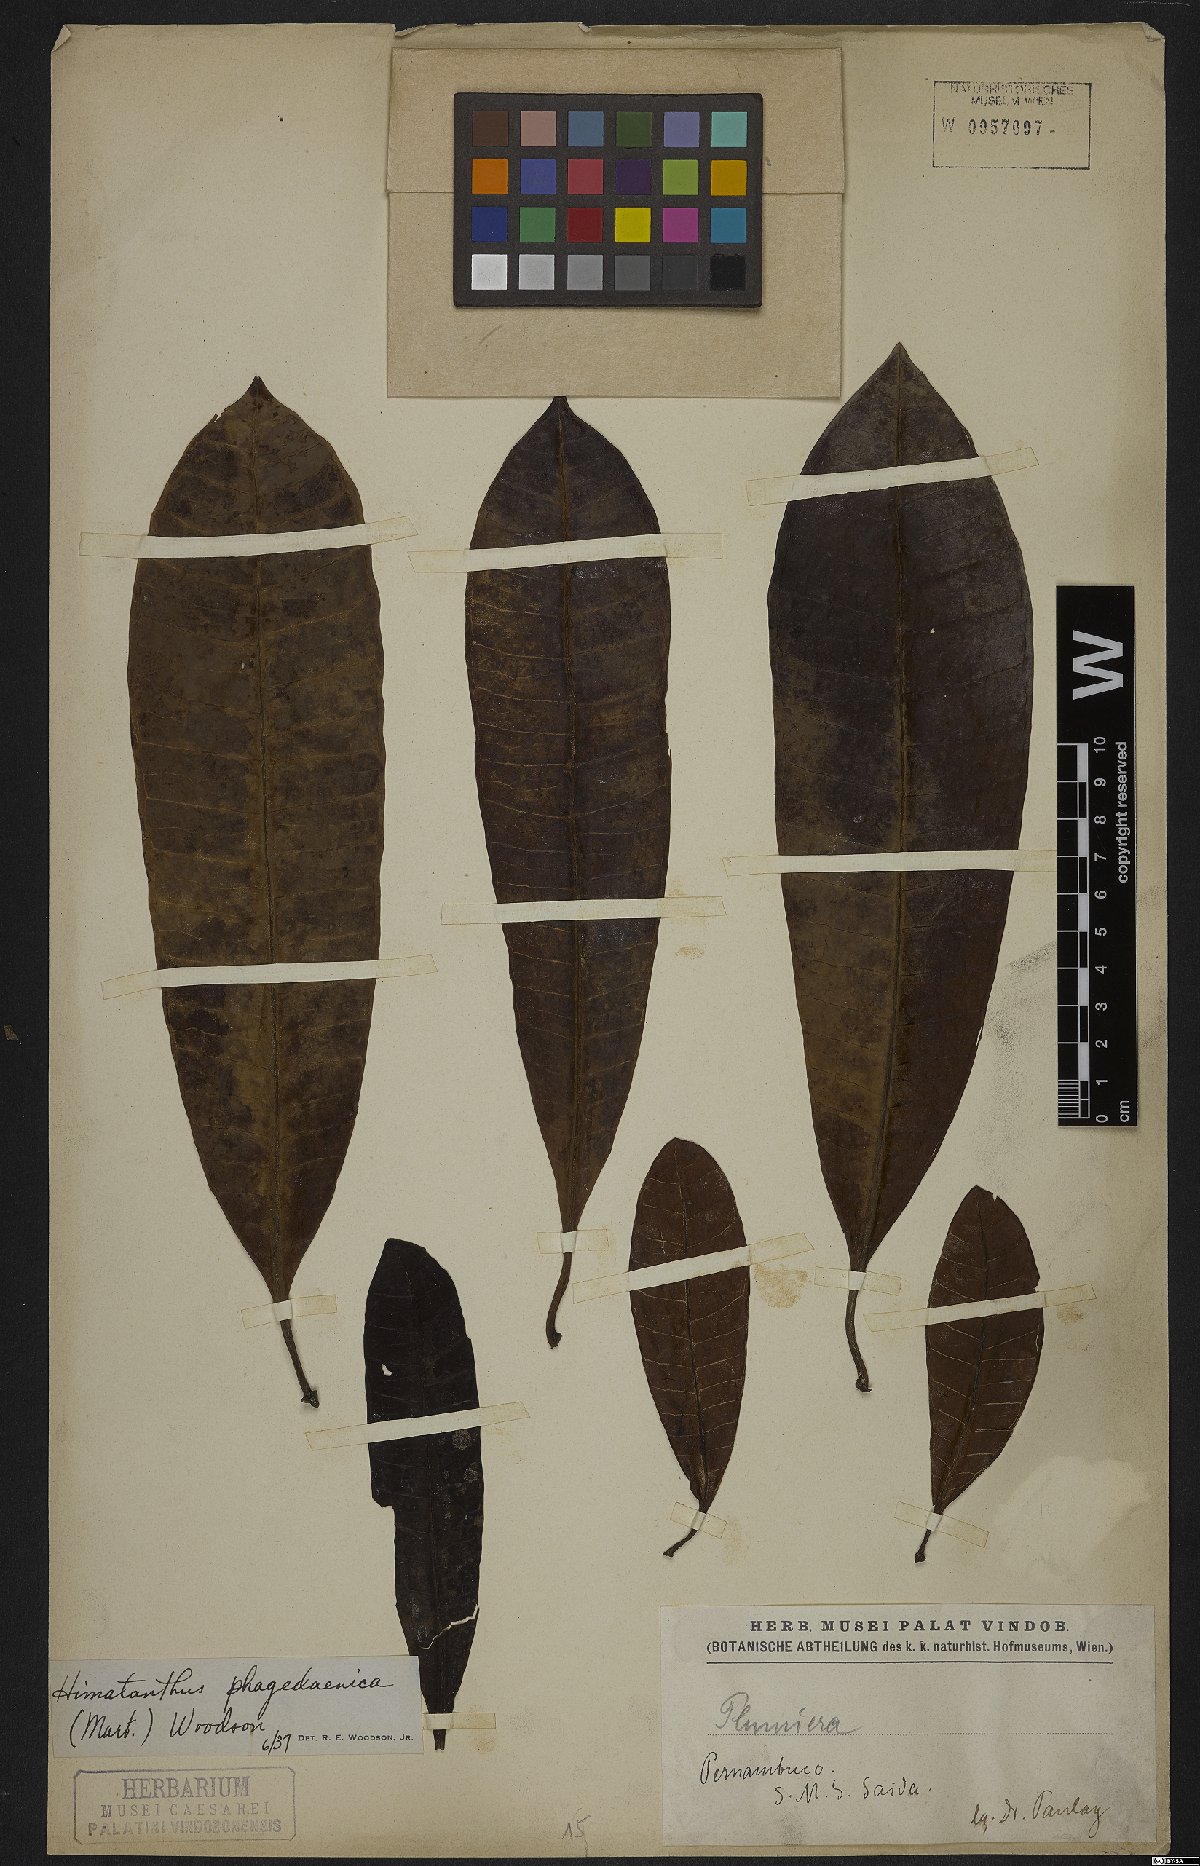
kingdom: Plantae
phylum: Tracheophyta
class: Magnoliopsida
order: Gentianales
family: Apocynaceae
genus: Himatanthus
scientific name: Himatanthus phagedaenicus
